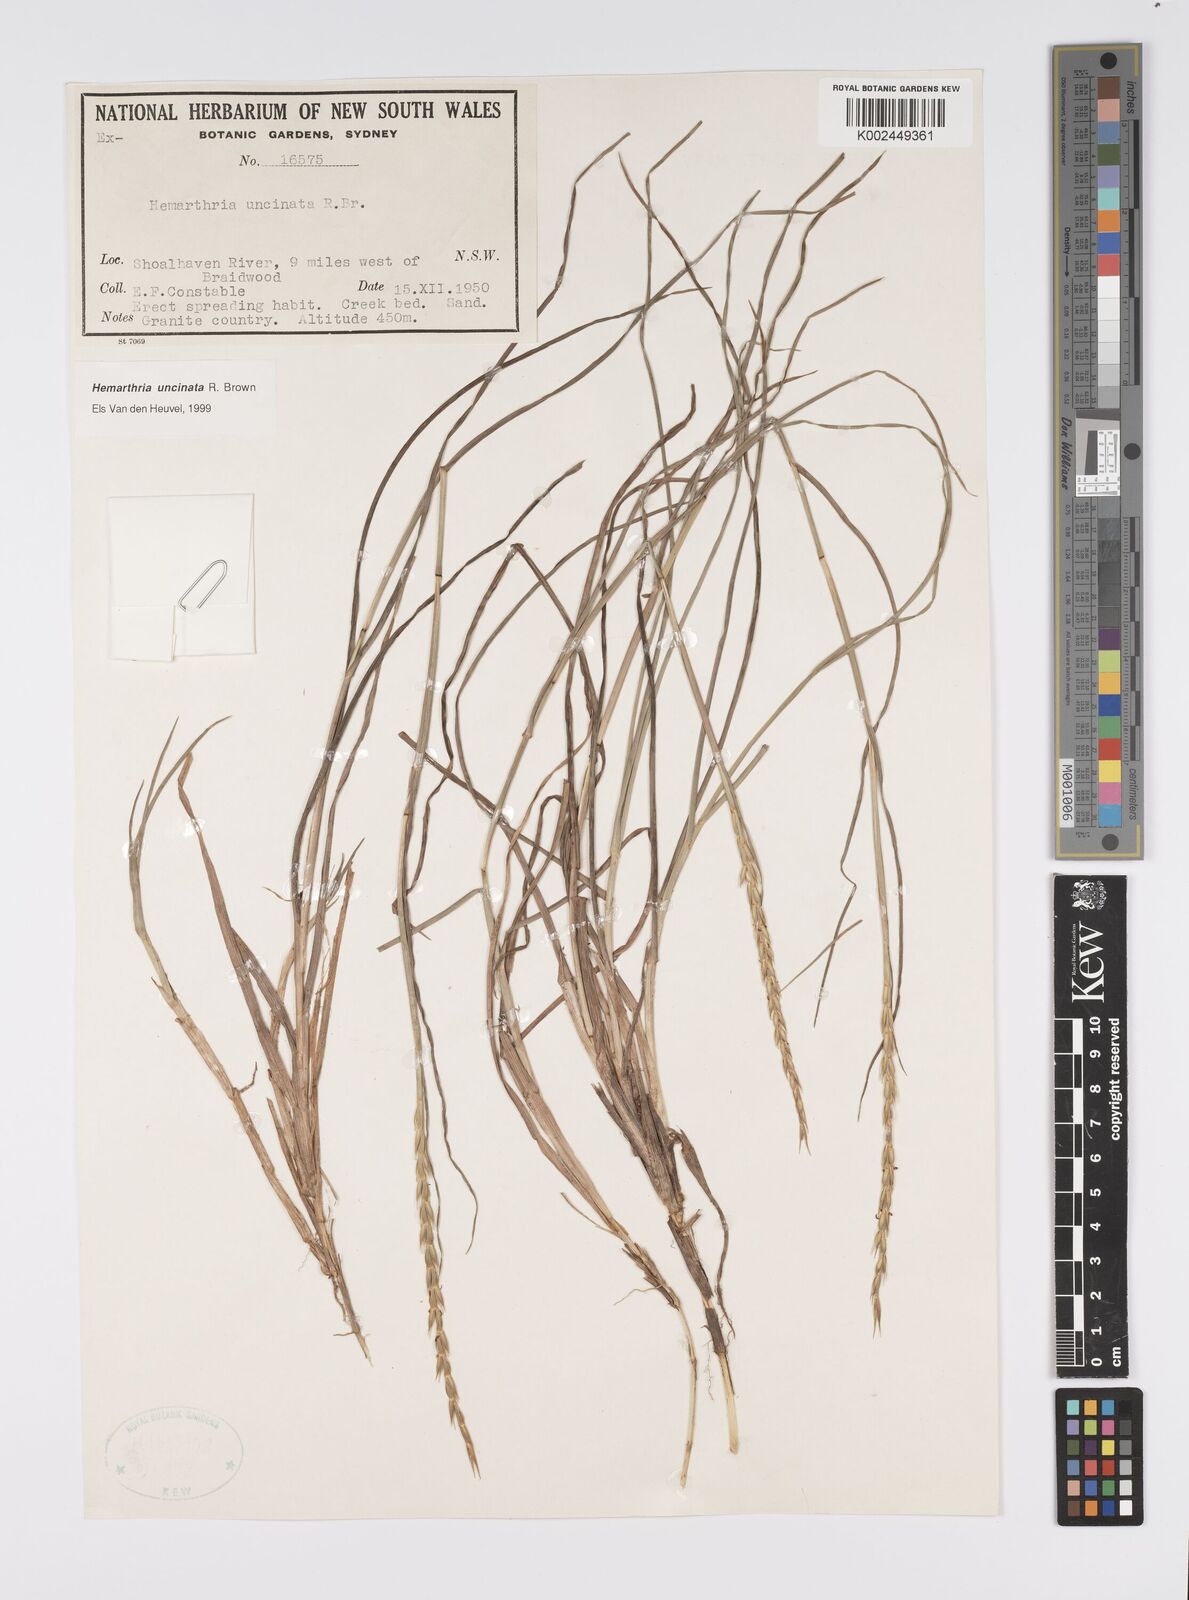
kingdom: Plantae
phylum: Tracheophyta
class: Liliopsida
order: Poales
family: Poaceae
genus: Hemarthria
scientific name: Hemarthria uncinata
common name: Matgrass
